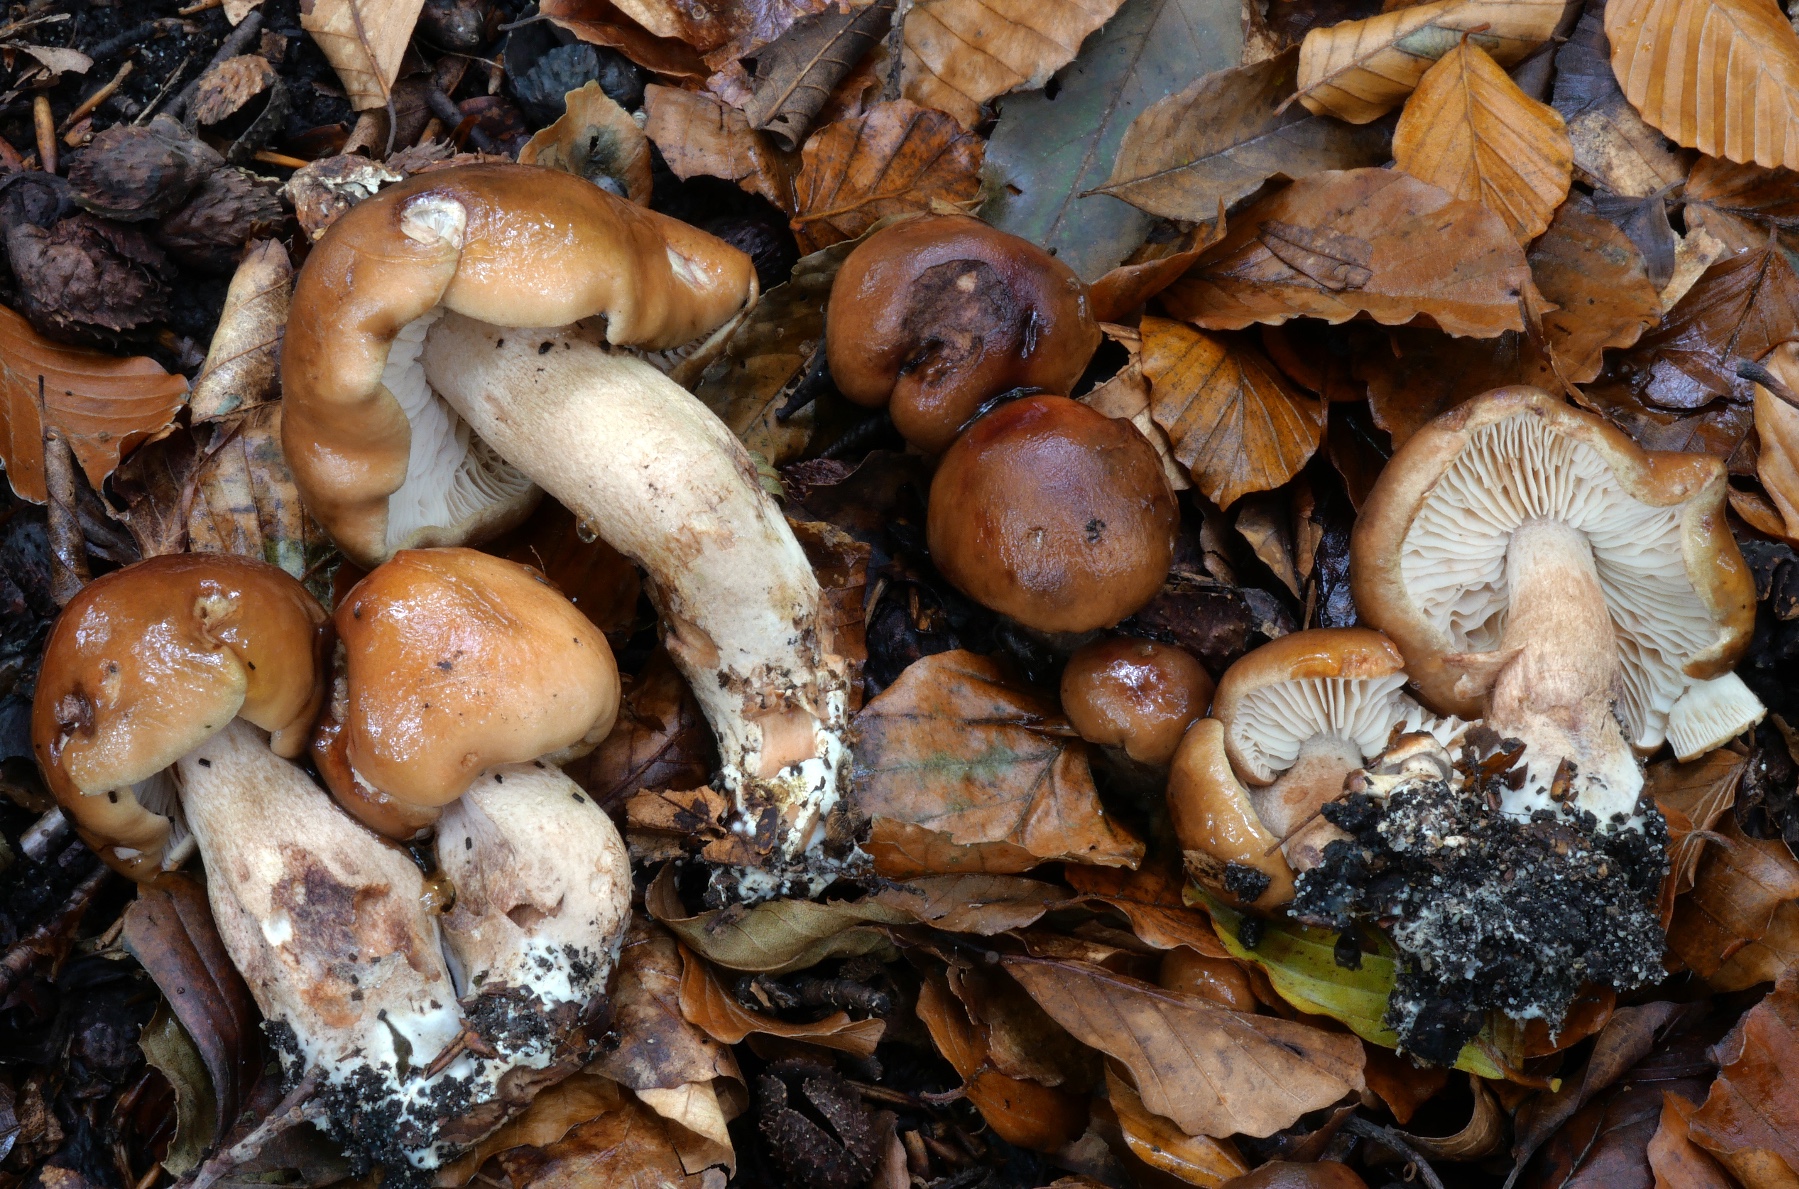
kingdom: Fungi
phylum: Basidiomycota
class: Agaricomycetes
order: Agaricales
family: Tricholomataceae
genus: Tricholoma
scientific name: Tricholoma
